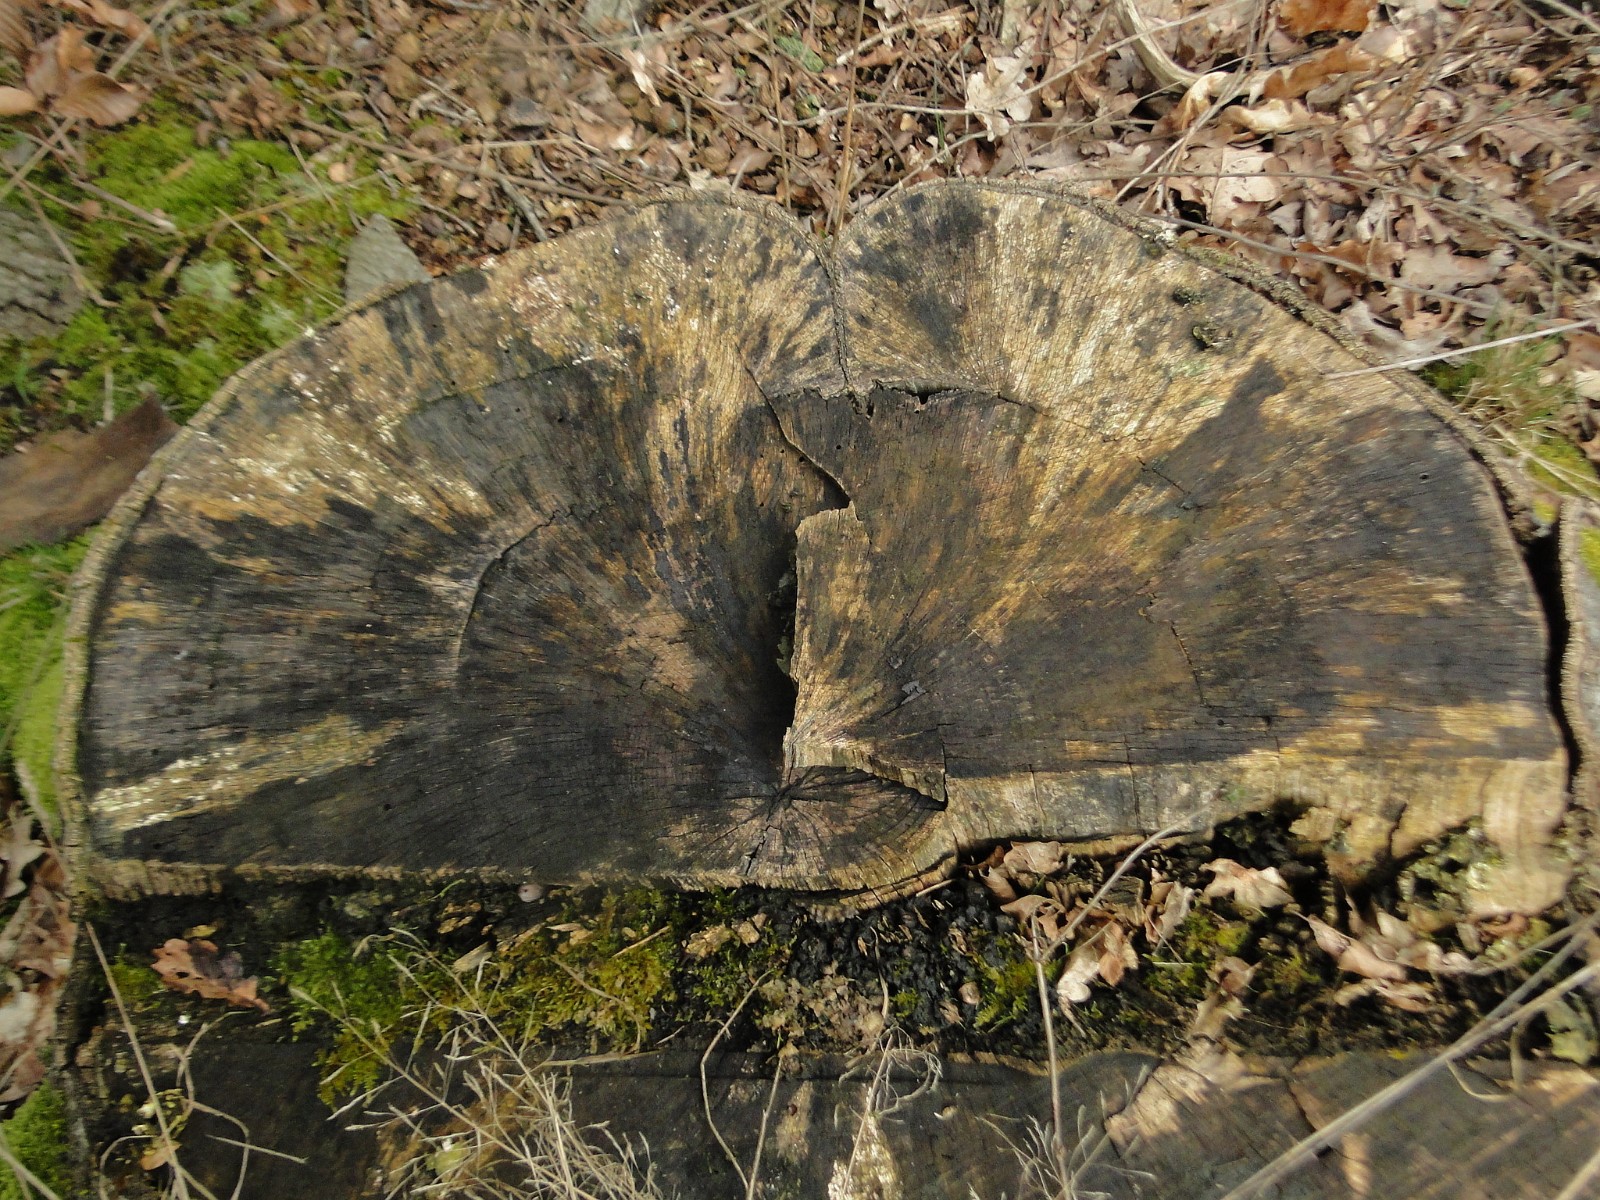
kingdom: Fungi
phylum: Ascomycota
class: Leotiomycetes
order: Helotiales
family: Helotiaceae
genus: Bispora
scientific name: Bispora pallescens
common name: måtte-snitskive
